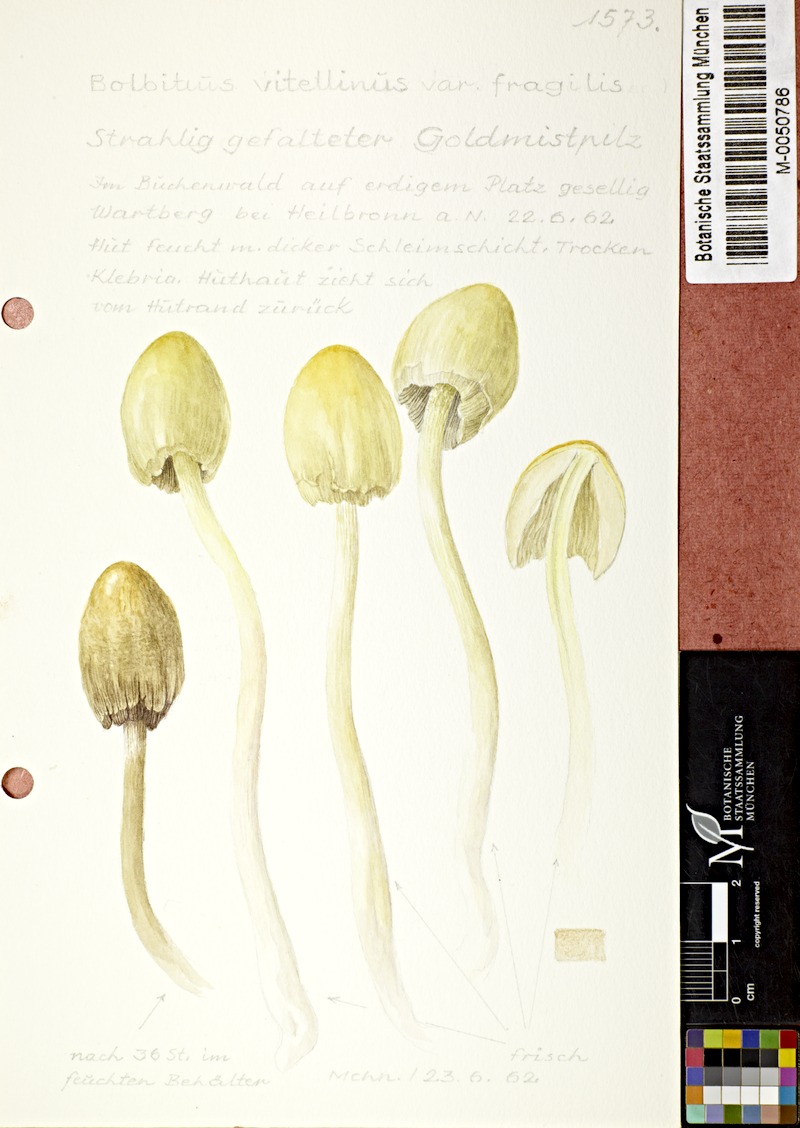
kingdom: Fungi
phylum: Basidiomycota
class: Agaricomycetes
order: Agaricales
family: Bolbitiaceae
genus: Bolbitius
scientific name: Bolbitius titubans
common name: Yellow fieldcap
